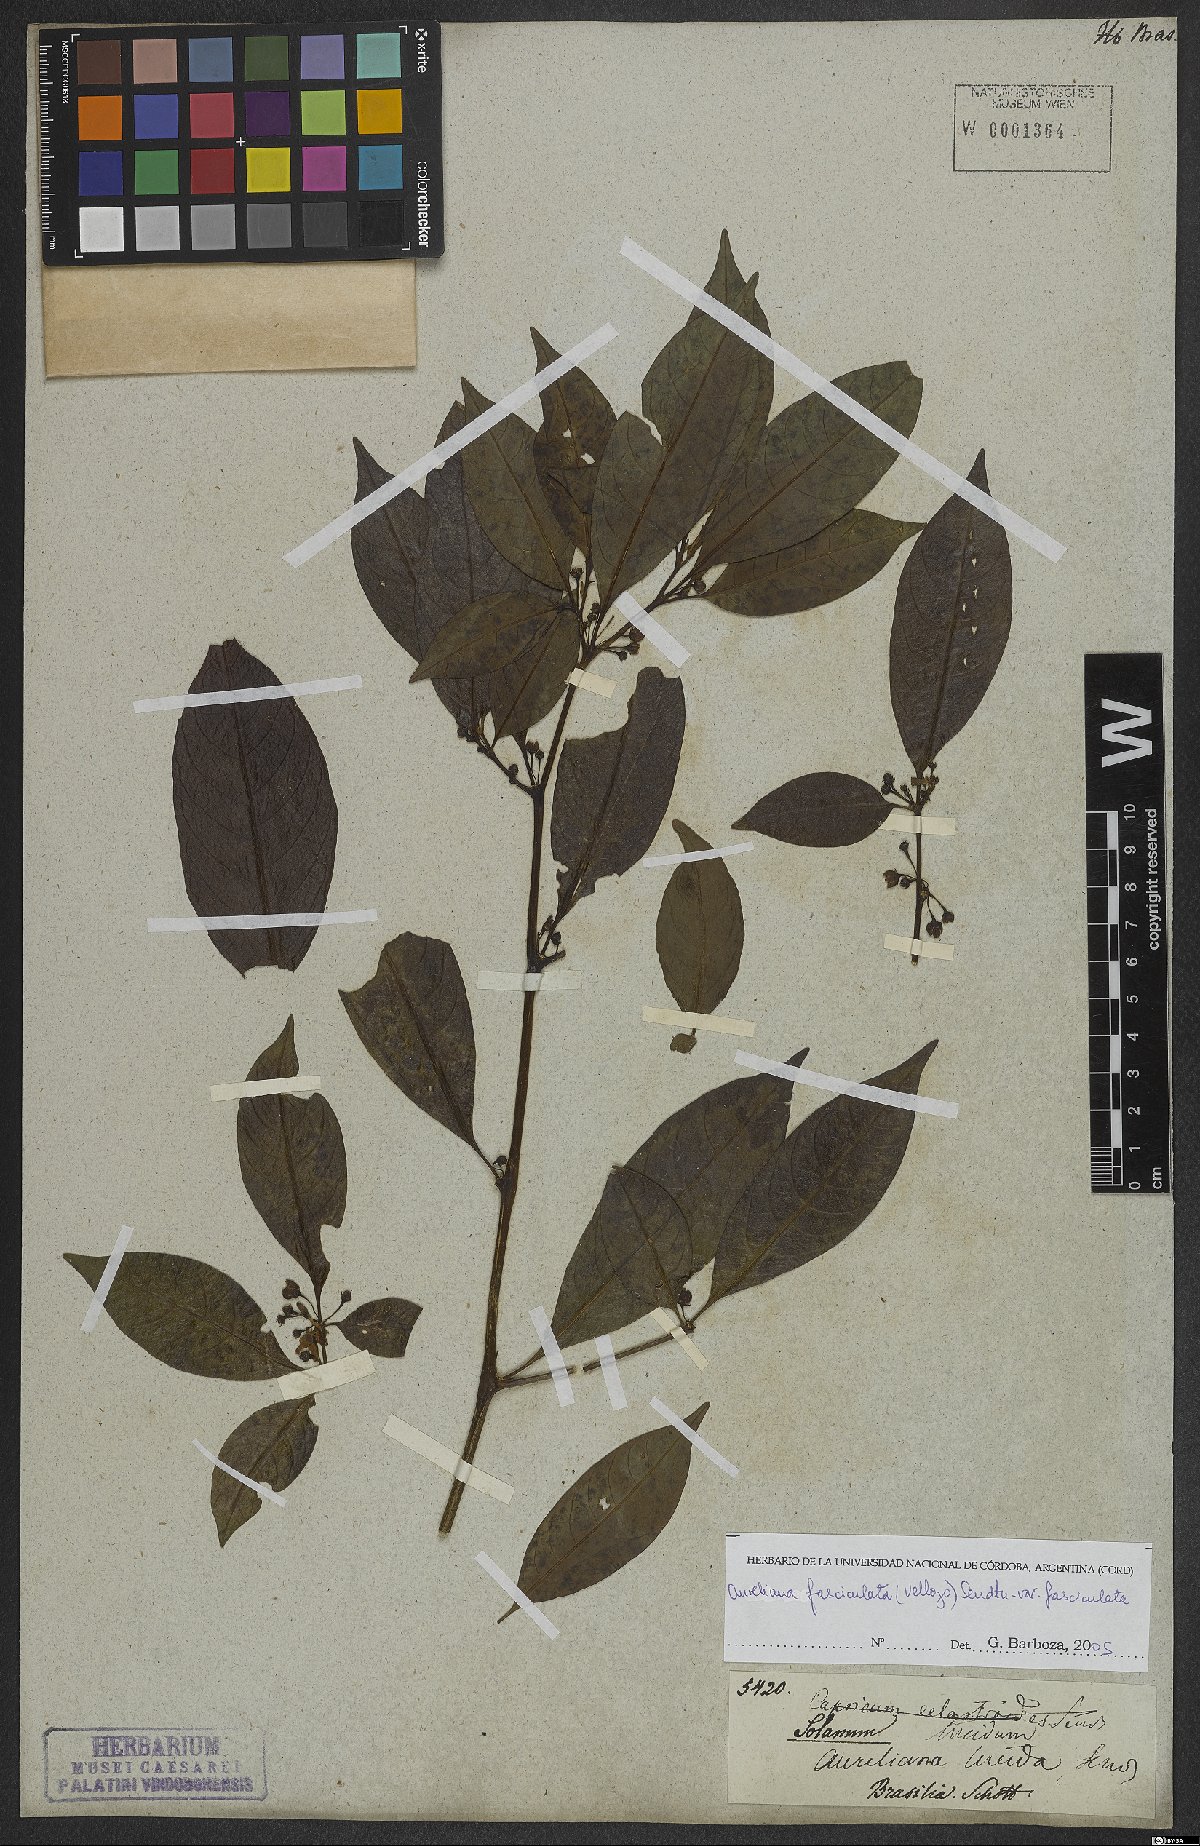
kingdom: Plantae
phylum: Tracheophyta
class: Magnoliopsida
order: Solanales
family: Solanaceae
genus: Athenaea
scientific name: Athenaea fasciculata
